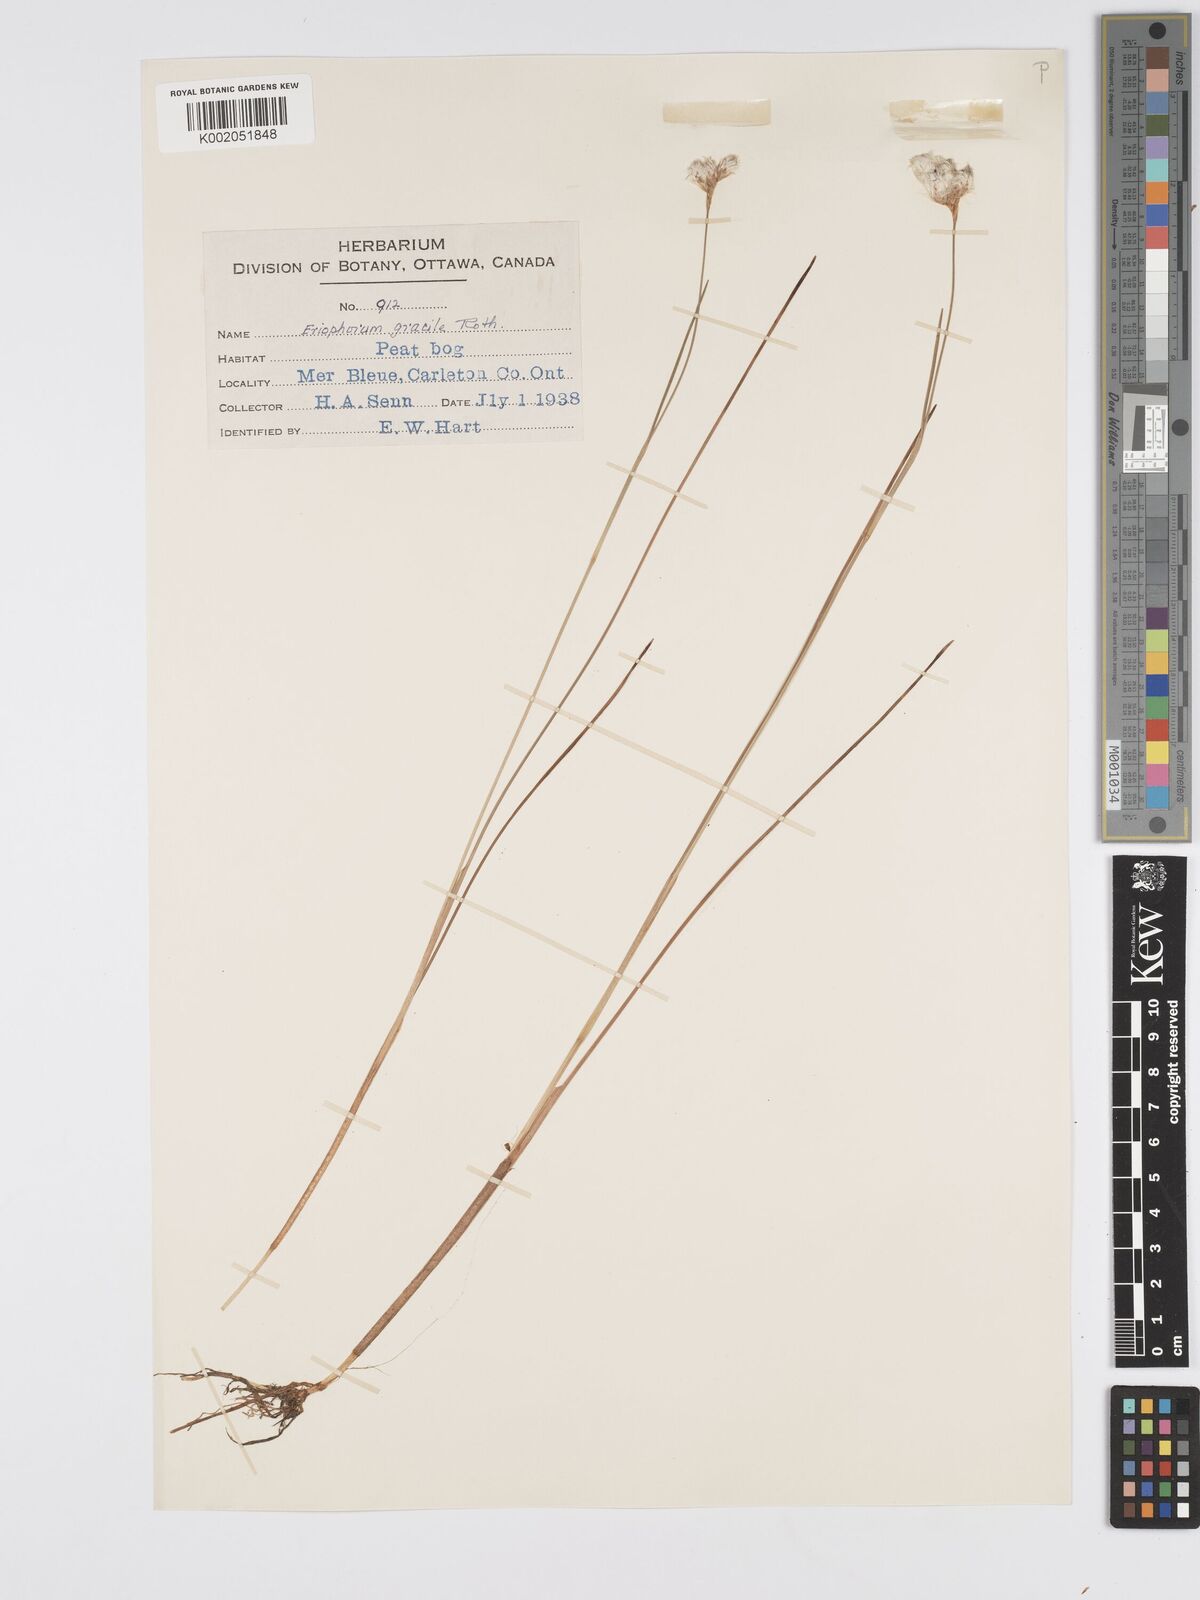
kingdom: Plantae
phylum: Tracheophyta
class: Liliopsida
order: Poales
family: Cyperaceae
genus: Eriophorum
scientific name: Eriophorum gracile
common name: Slender cottongrass
